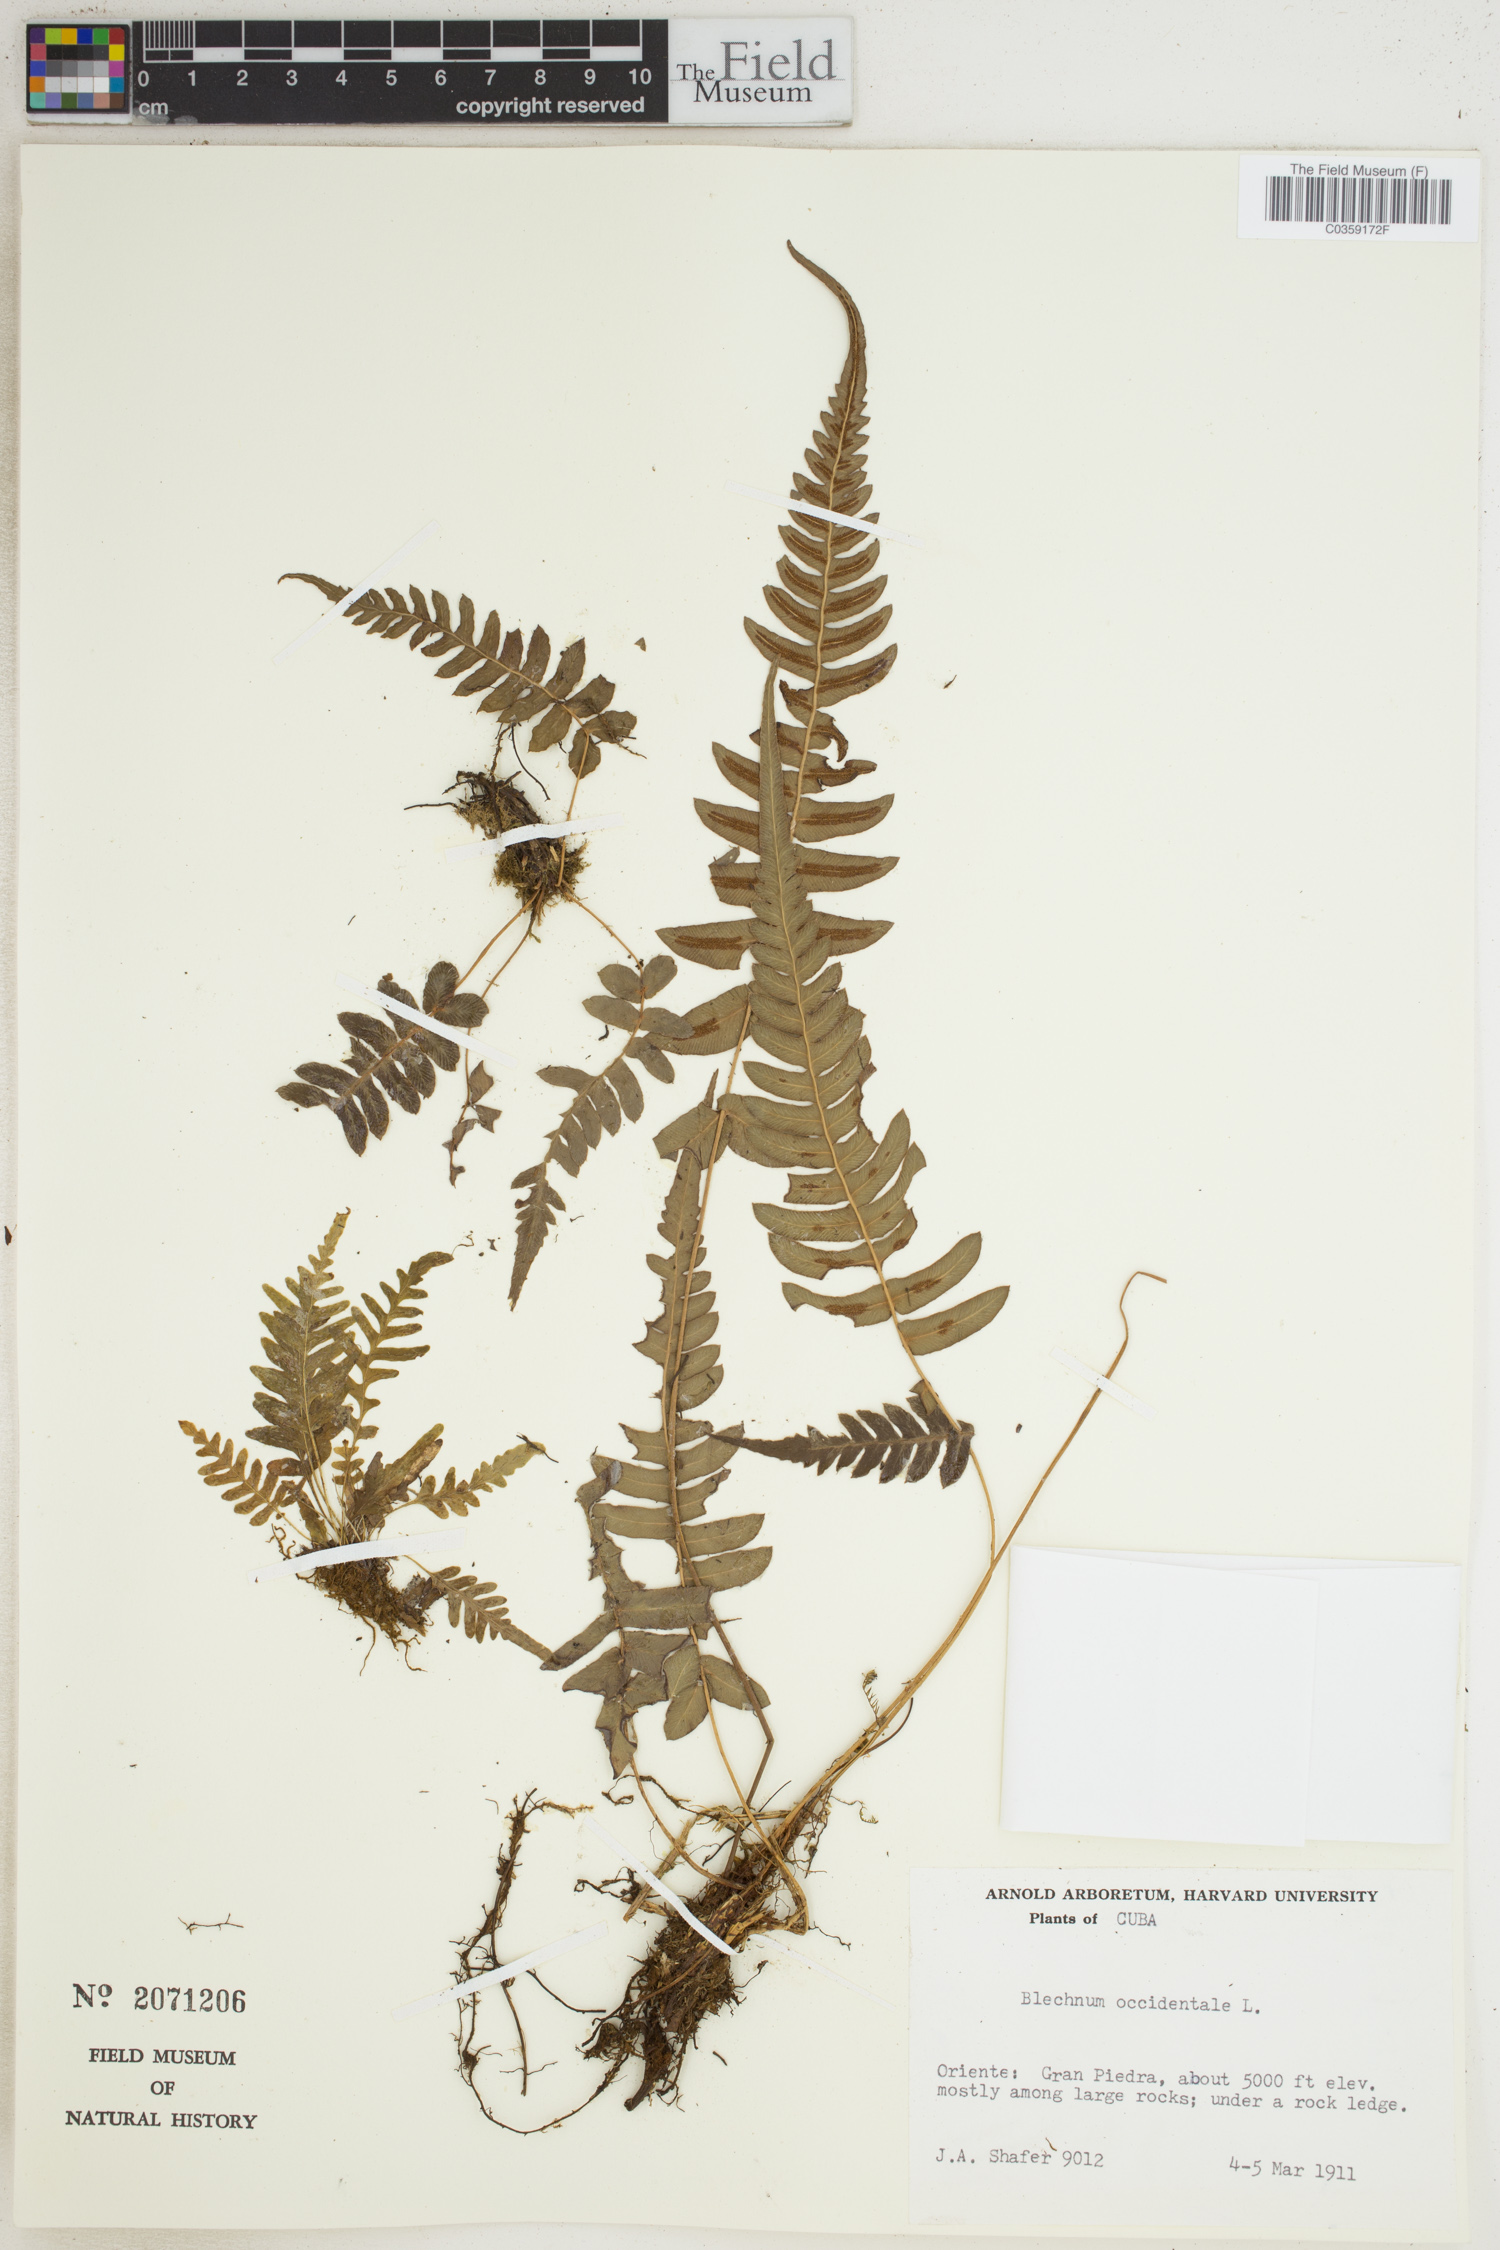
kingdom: Plantae
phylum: Tracheophyta
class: Polypodiopsida
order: Polypodiales
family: Blechnaceae
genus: Blechnum
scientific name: Blechnum occidentale
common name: Hammock fern
